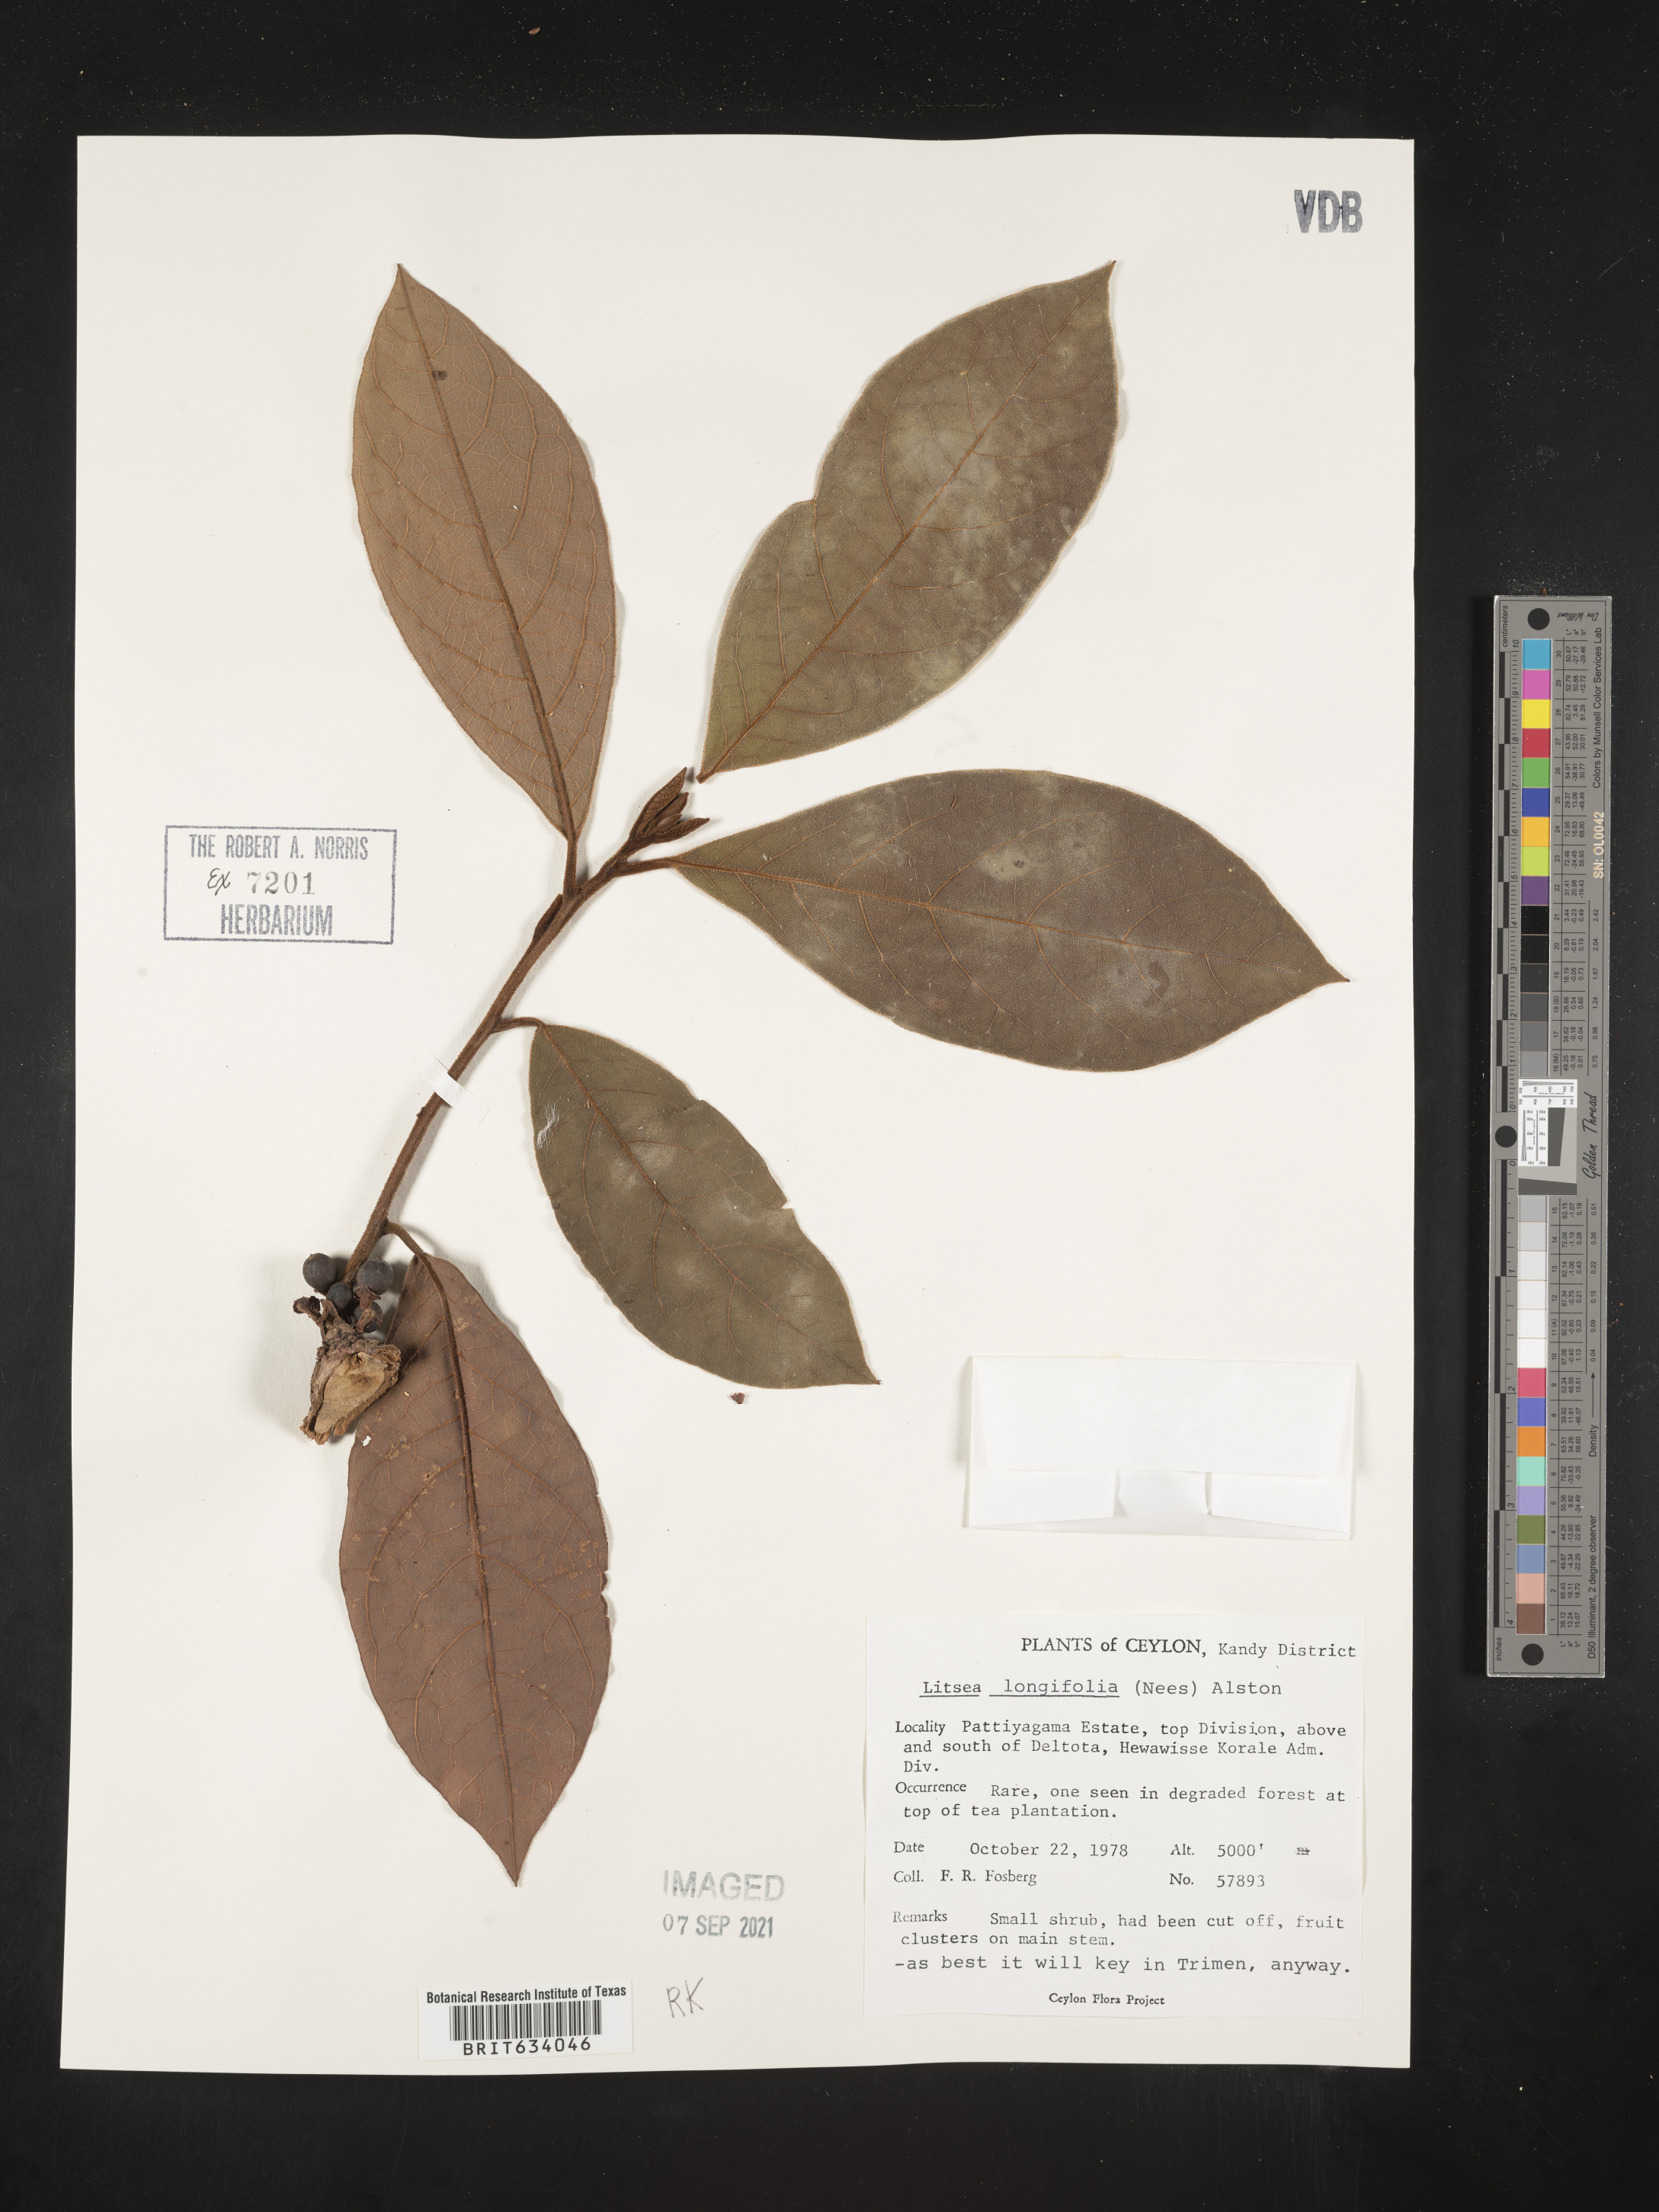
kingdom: Plantae
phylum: Tracheophyta
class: Magnoliopsida
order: Laurales
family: Lauraceae
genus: Litsea
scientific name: Litsea
